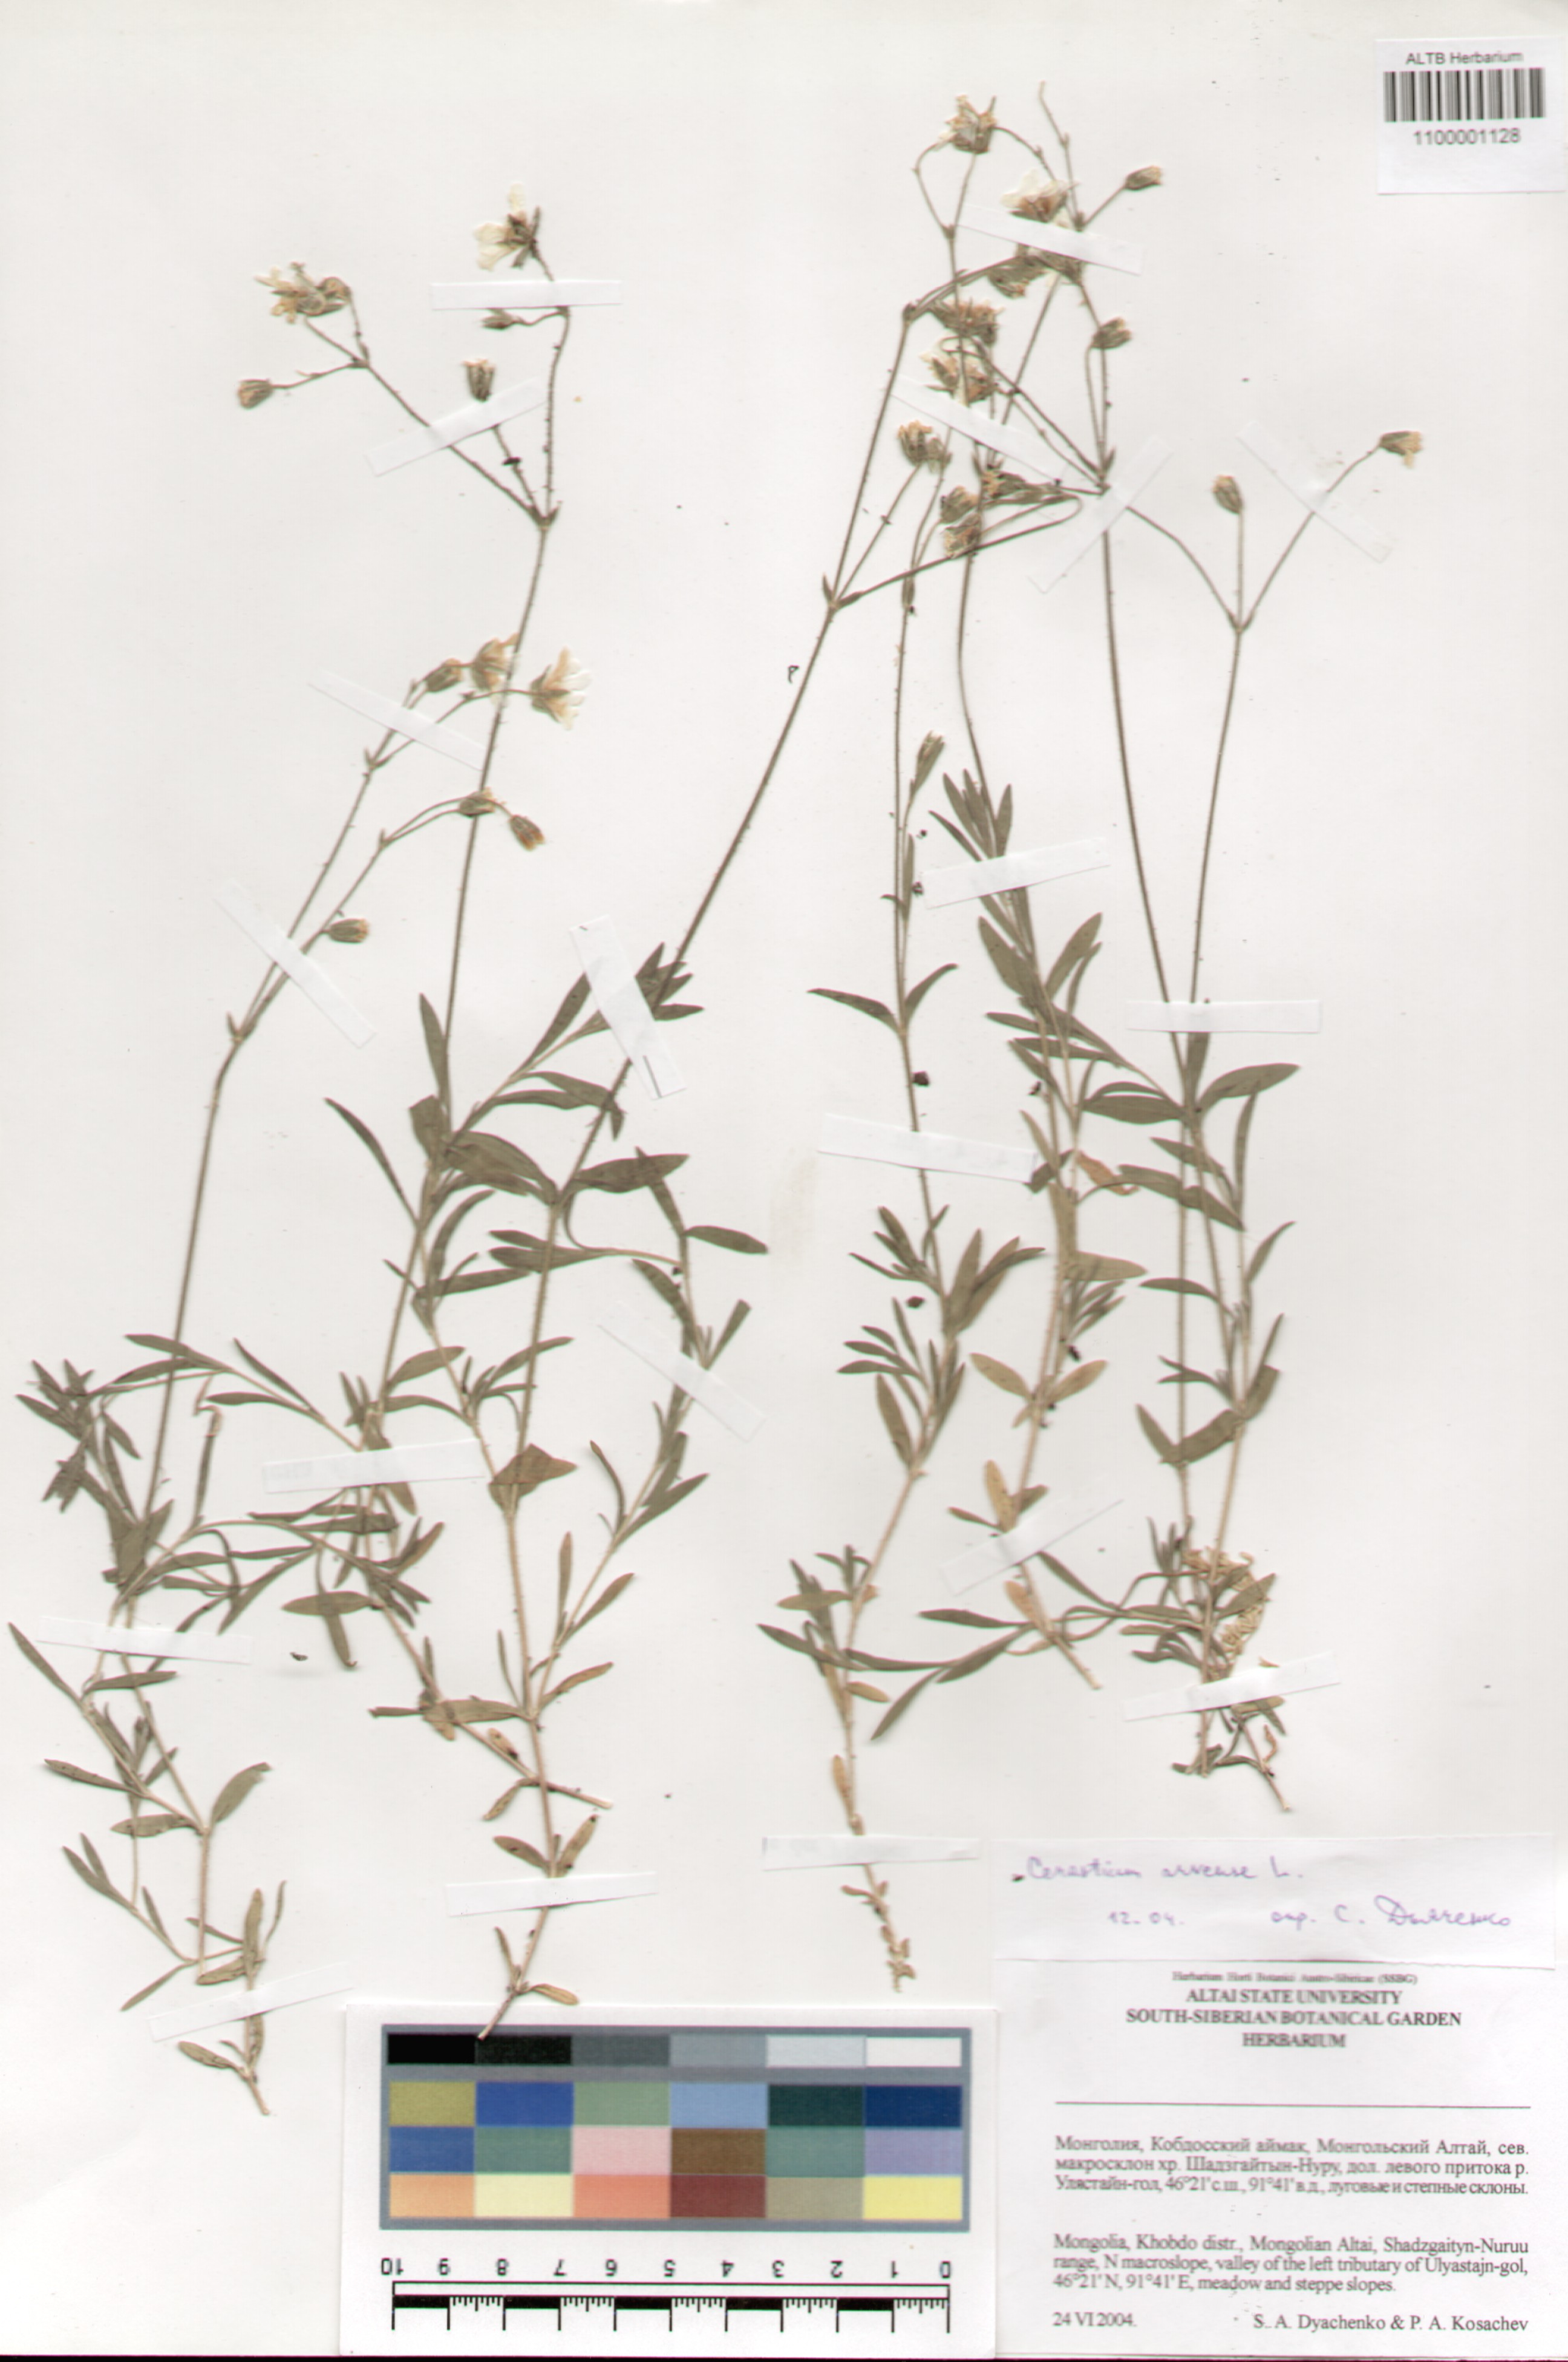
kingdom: Plantae
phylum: Tracheophyta
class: Magnoliopsida
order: Caryophyllales
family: Caryophyllaceae
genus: Cerastium
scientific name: Cerastium arvense
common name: Field mouse-ear
